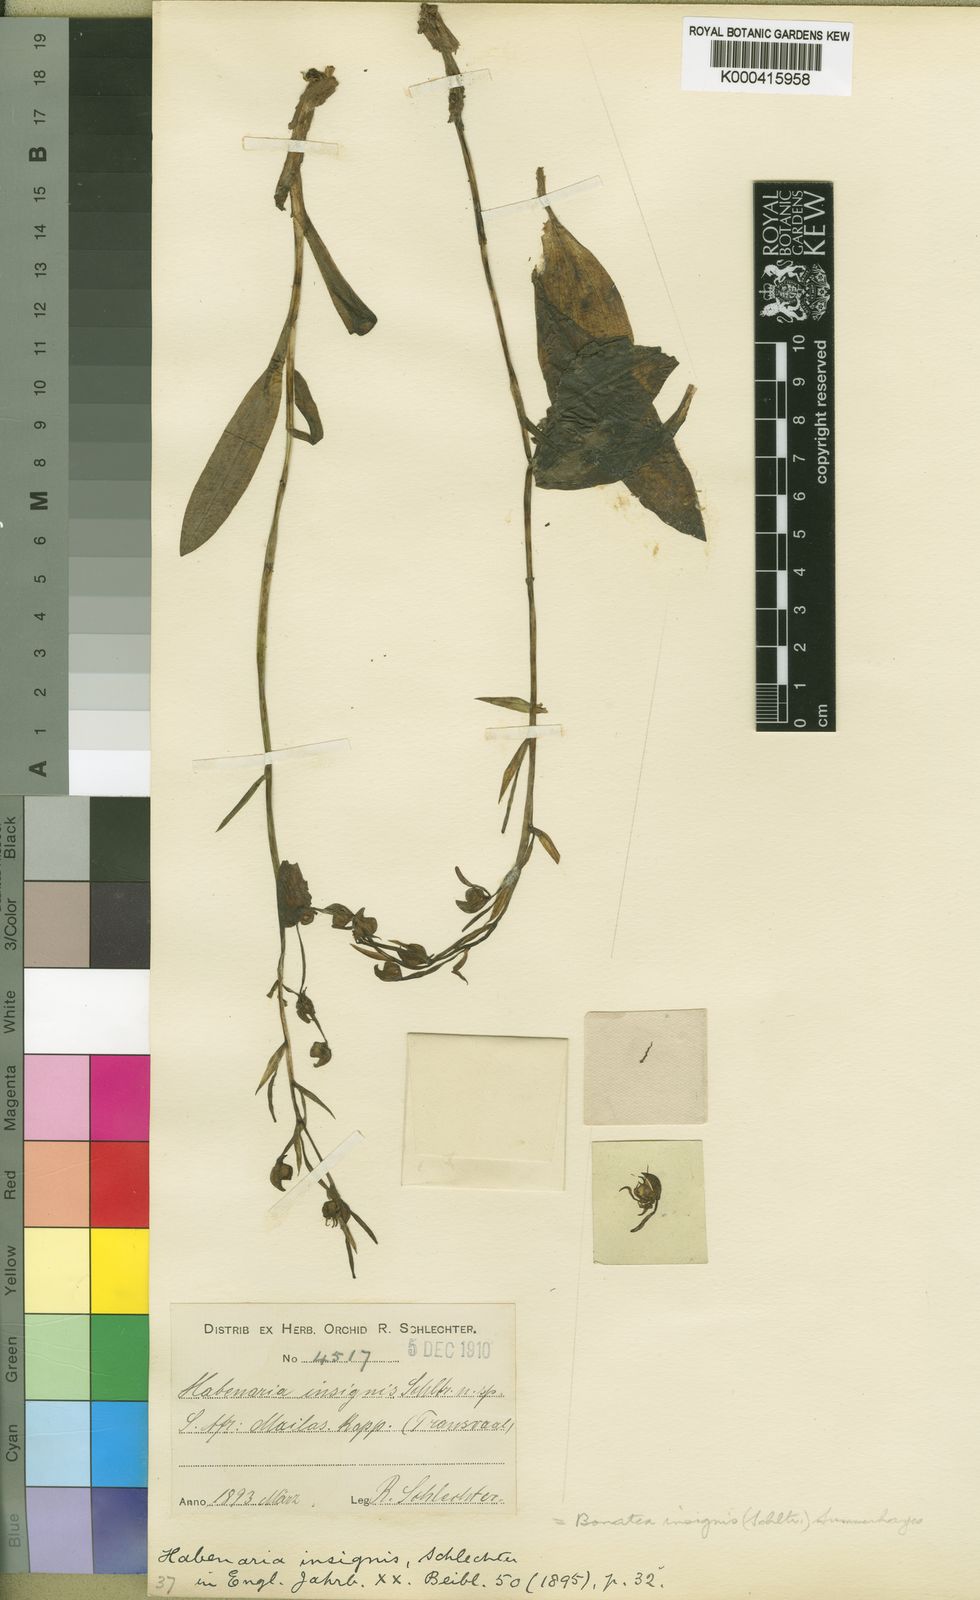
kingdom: Plantae
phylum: Tracheophyta
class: Liliopsida
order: Asparagales
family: Orchidaceae
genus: Bonatea
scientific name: Bonatea polypodantha
